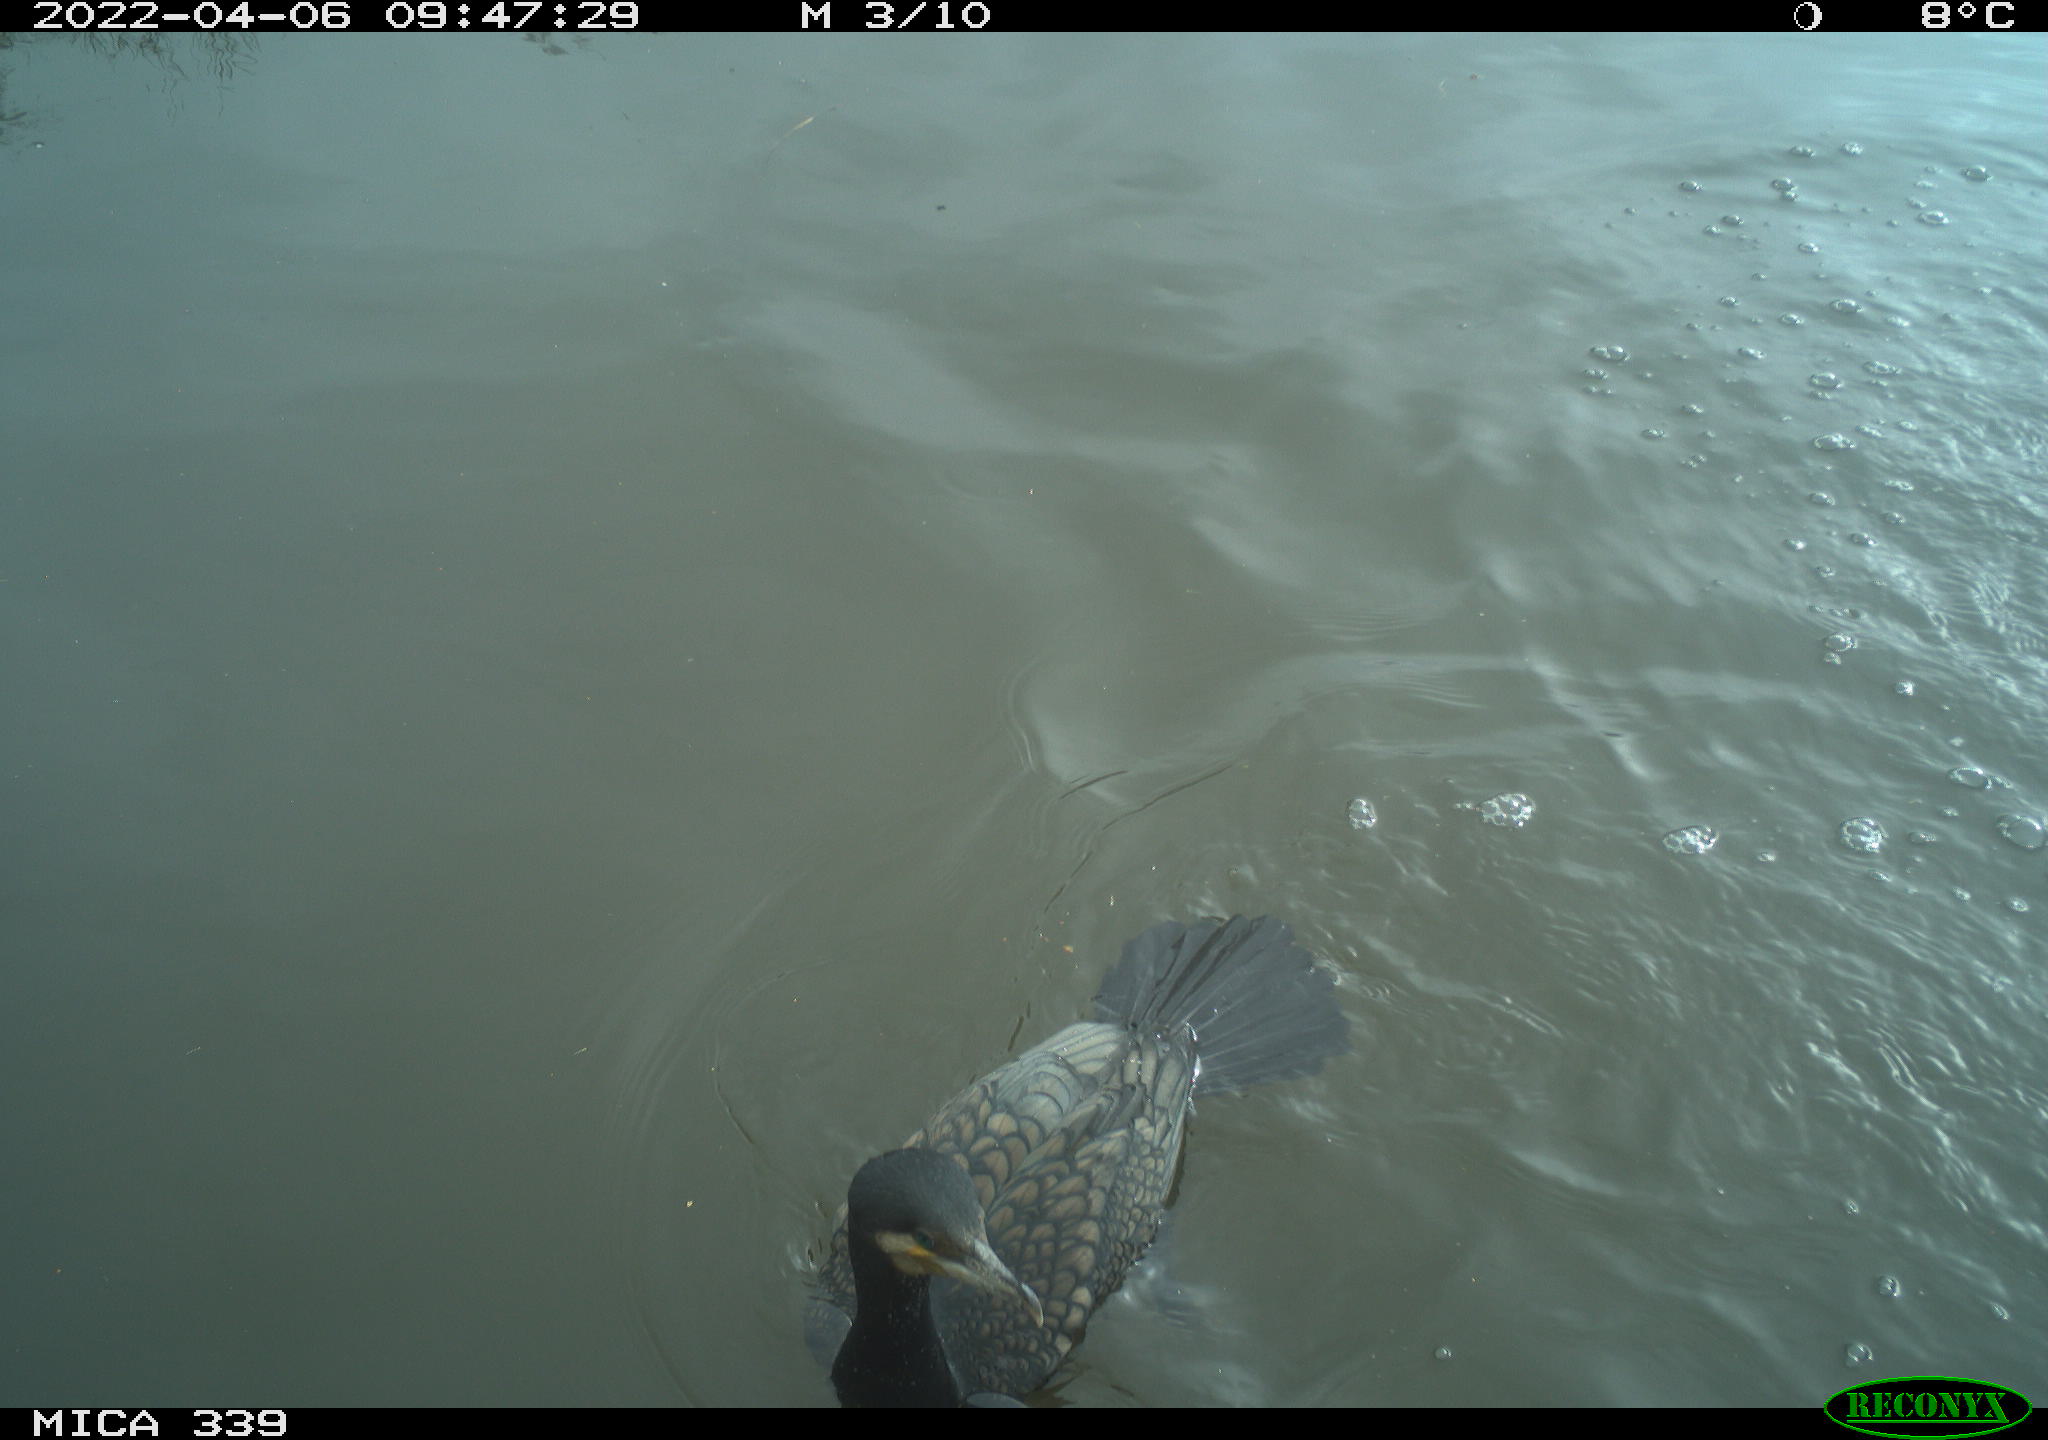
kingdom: Animalia
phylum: Chordata
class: Aves
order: Suliformes
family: Phalacrocoracidae
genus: Phalacrocorax
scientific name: Phalacrocorax carbo
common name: Great cormorant
